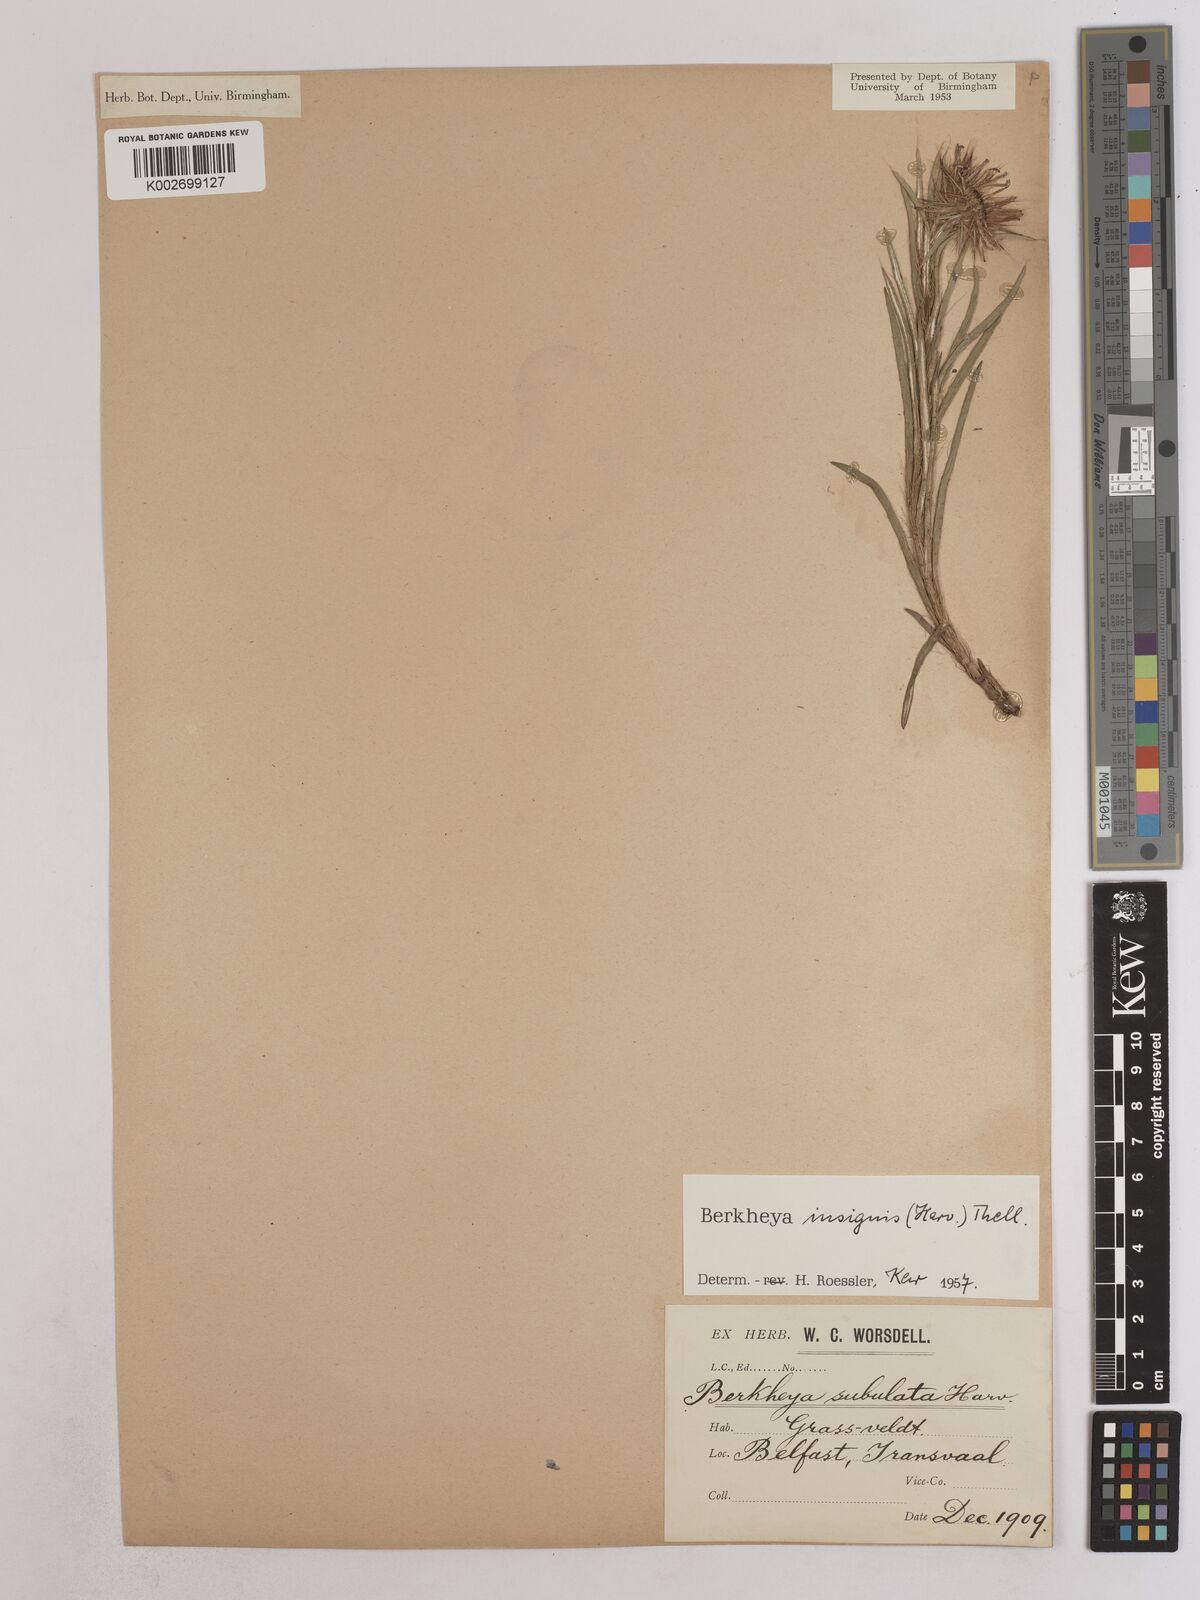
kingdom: Plantae
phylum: Tracheophyta
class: Magnoliopsida
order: Asterales
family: Asteraceae
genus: Berkheya
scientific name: Berkheya insignis
